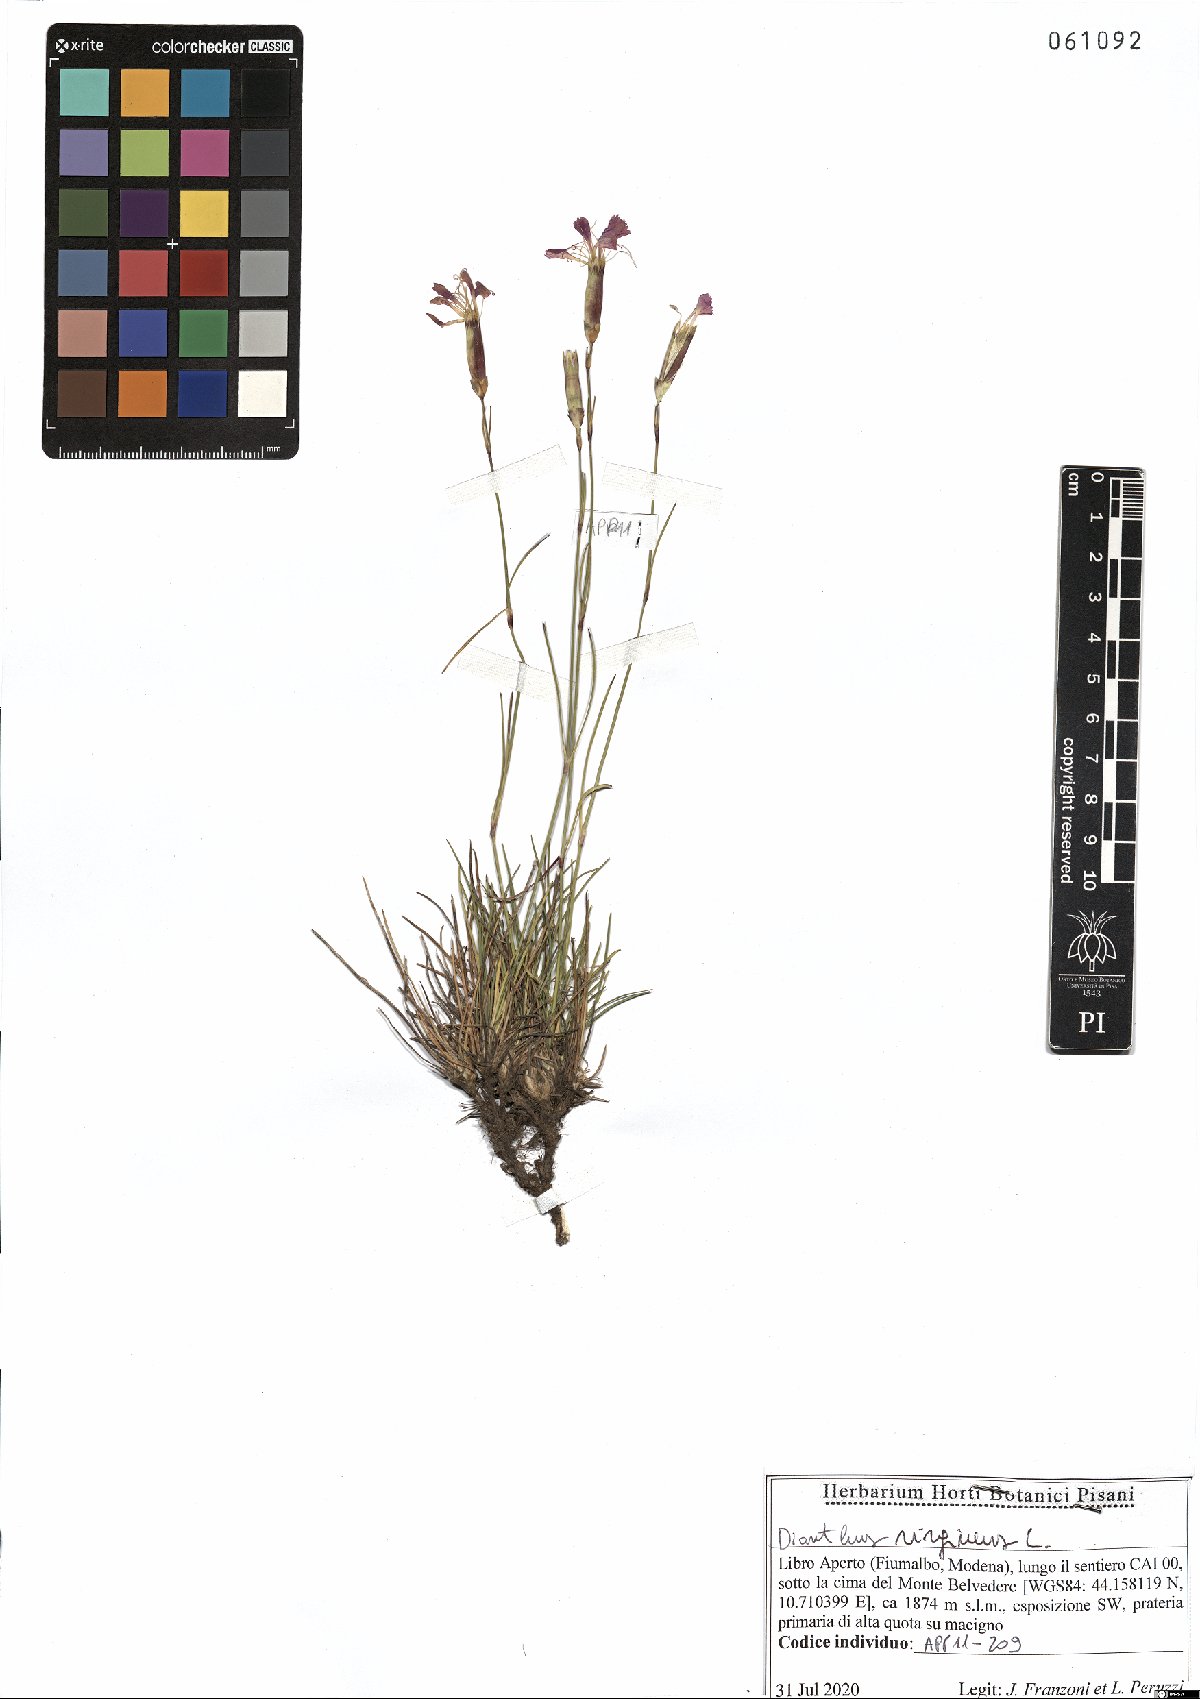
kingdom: Plantae
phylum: Tracheophyta
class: Magnoliopsida
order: Caryophyllales
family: Caryophyllaceae
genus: Dianthus
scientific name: Dianthus virgineus
